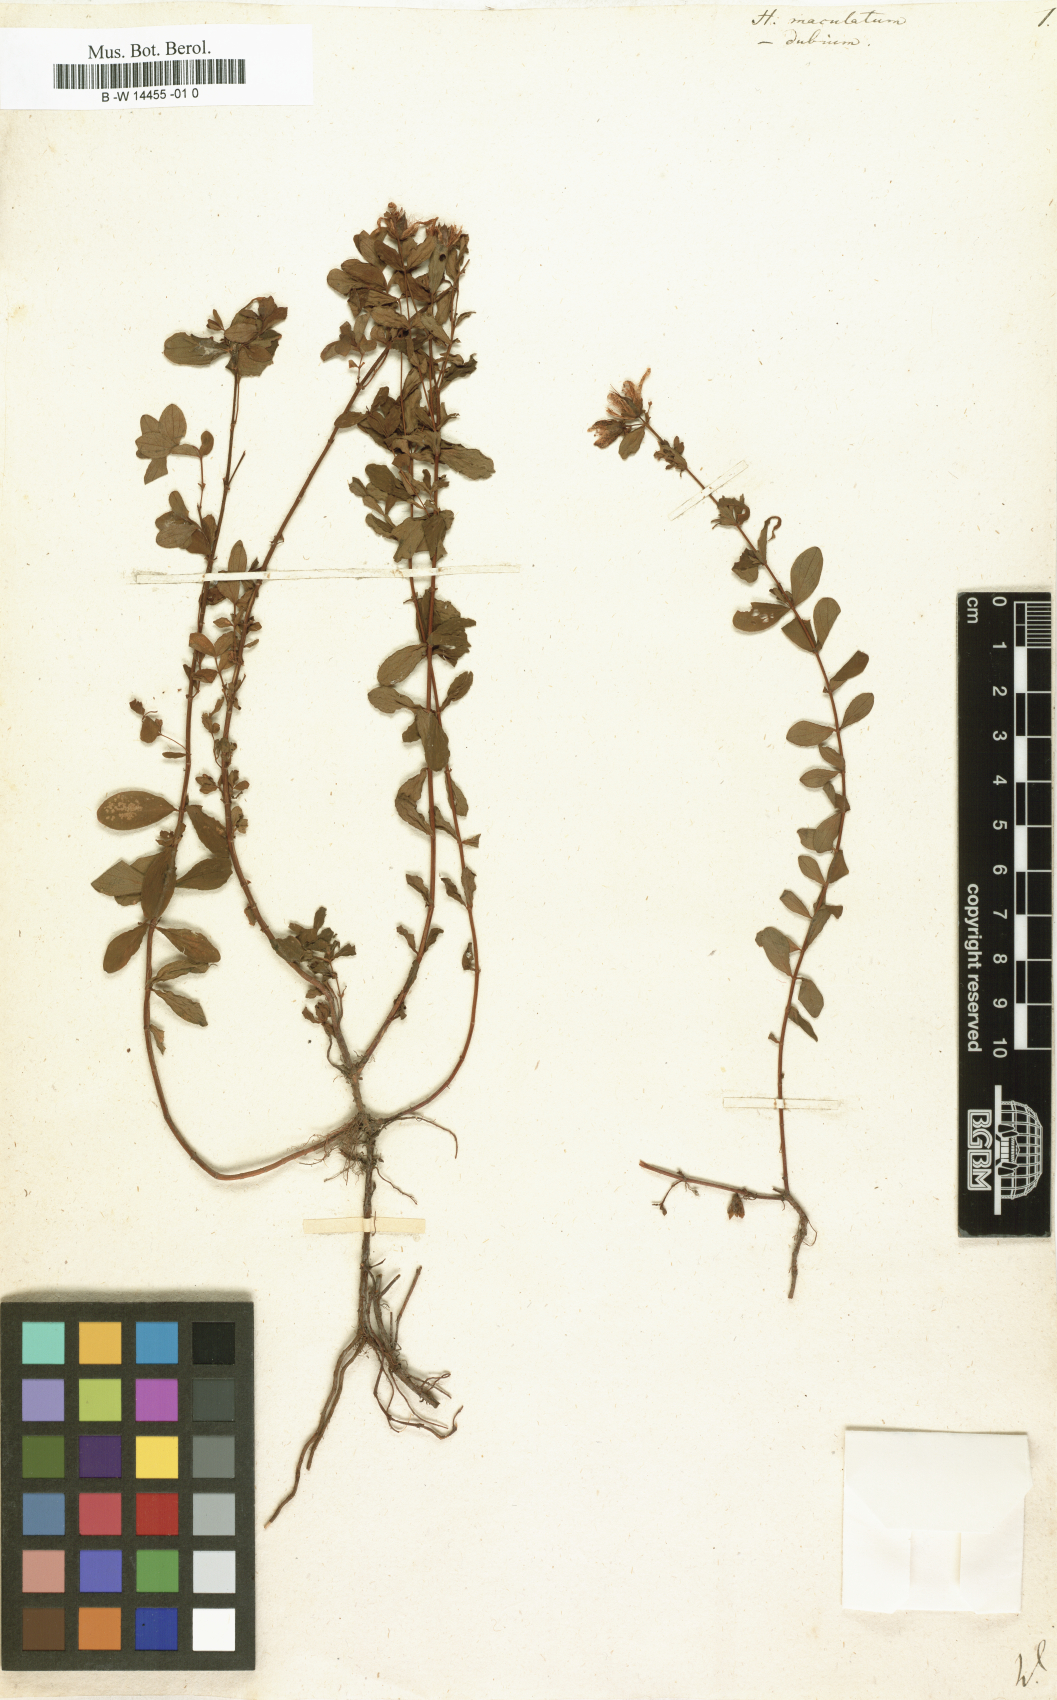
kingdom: Plantae
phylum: Tracheophyta
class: Magnoliopsida
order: Malpighiales
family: Hypericaceae
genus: Hypericum
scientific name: Hypericum maculatum
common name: Imperforate st. john's-wort
